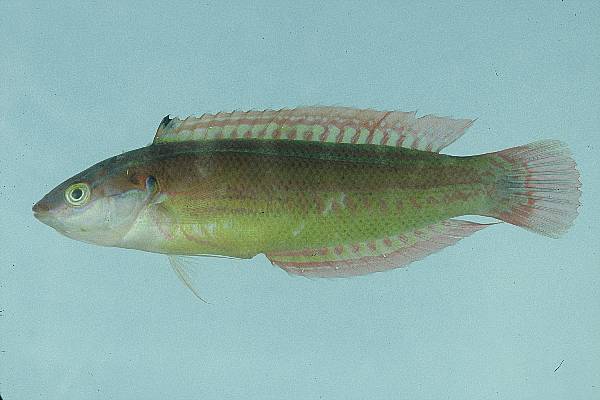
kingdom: Animalia
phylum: Chordata
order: Perciformes
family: Labridae
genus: Coris
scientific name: Coris caudimacula
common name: Spottail coris
